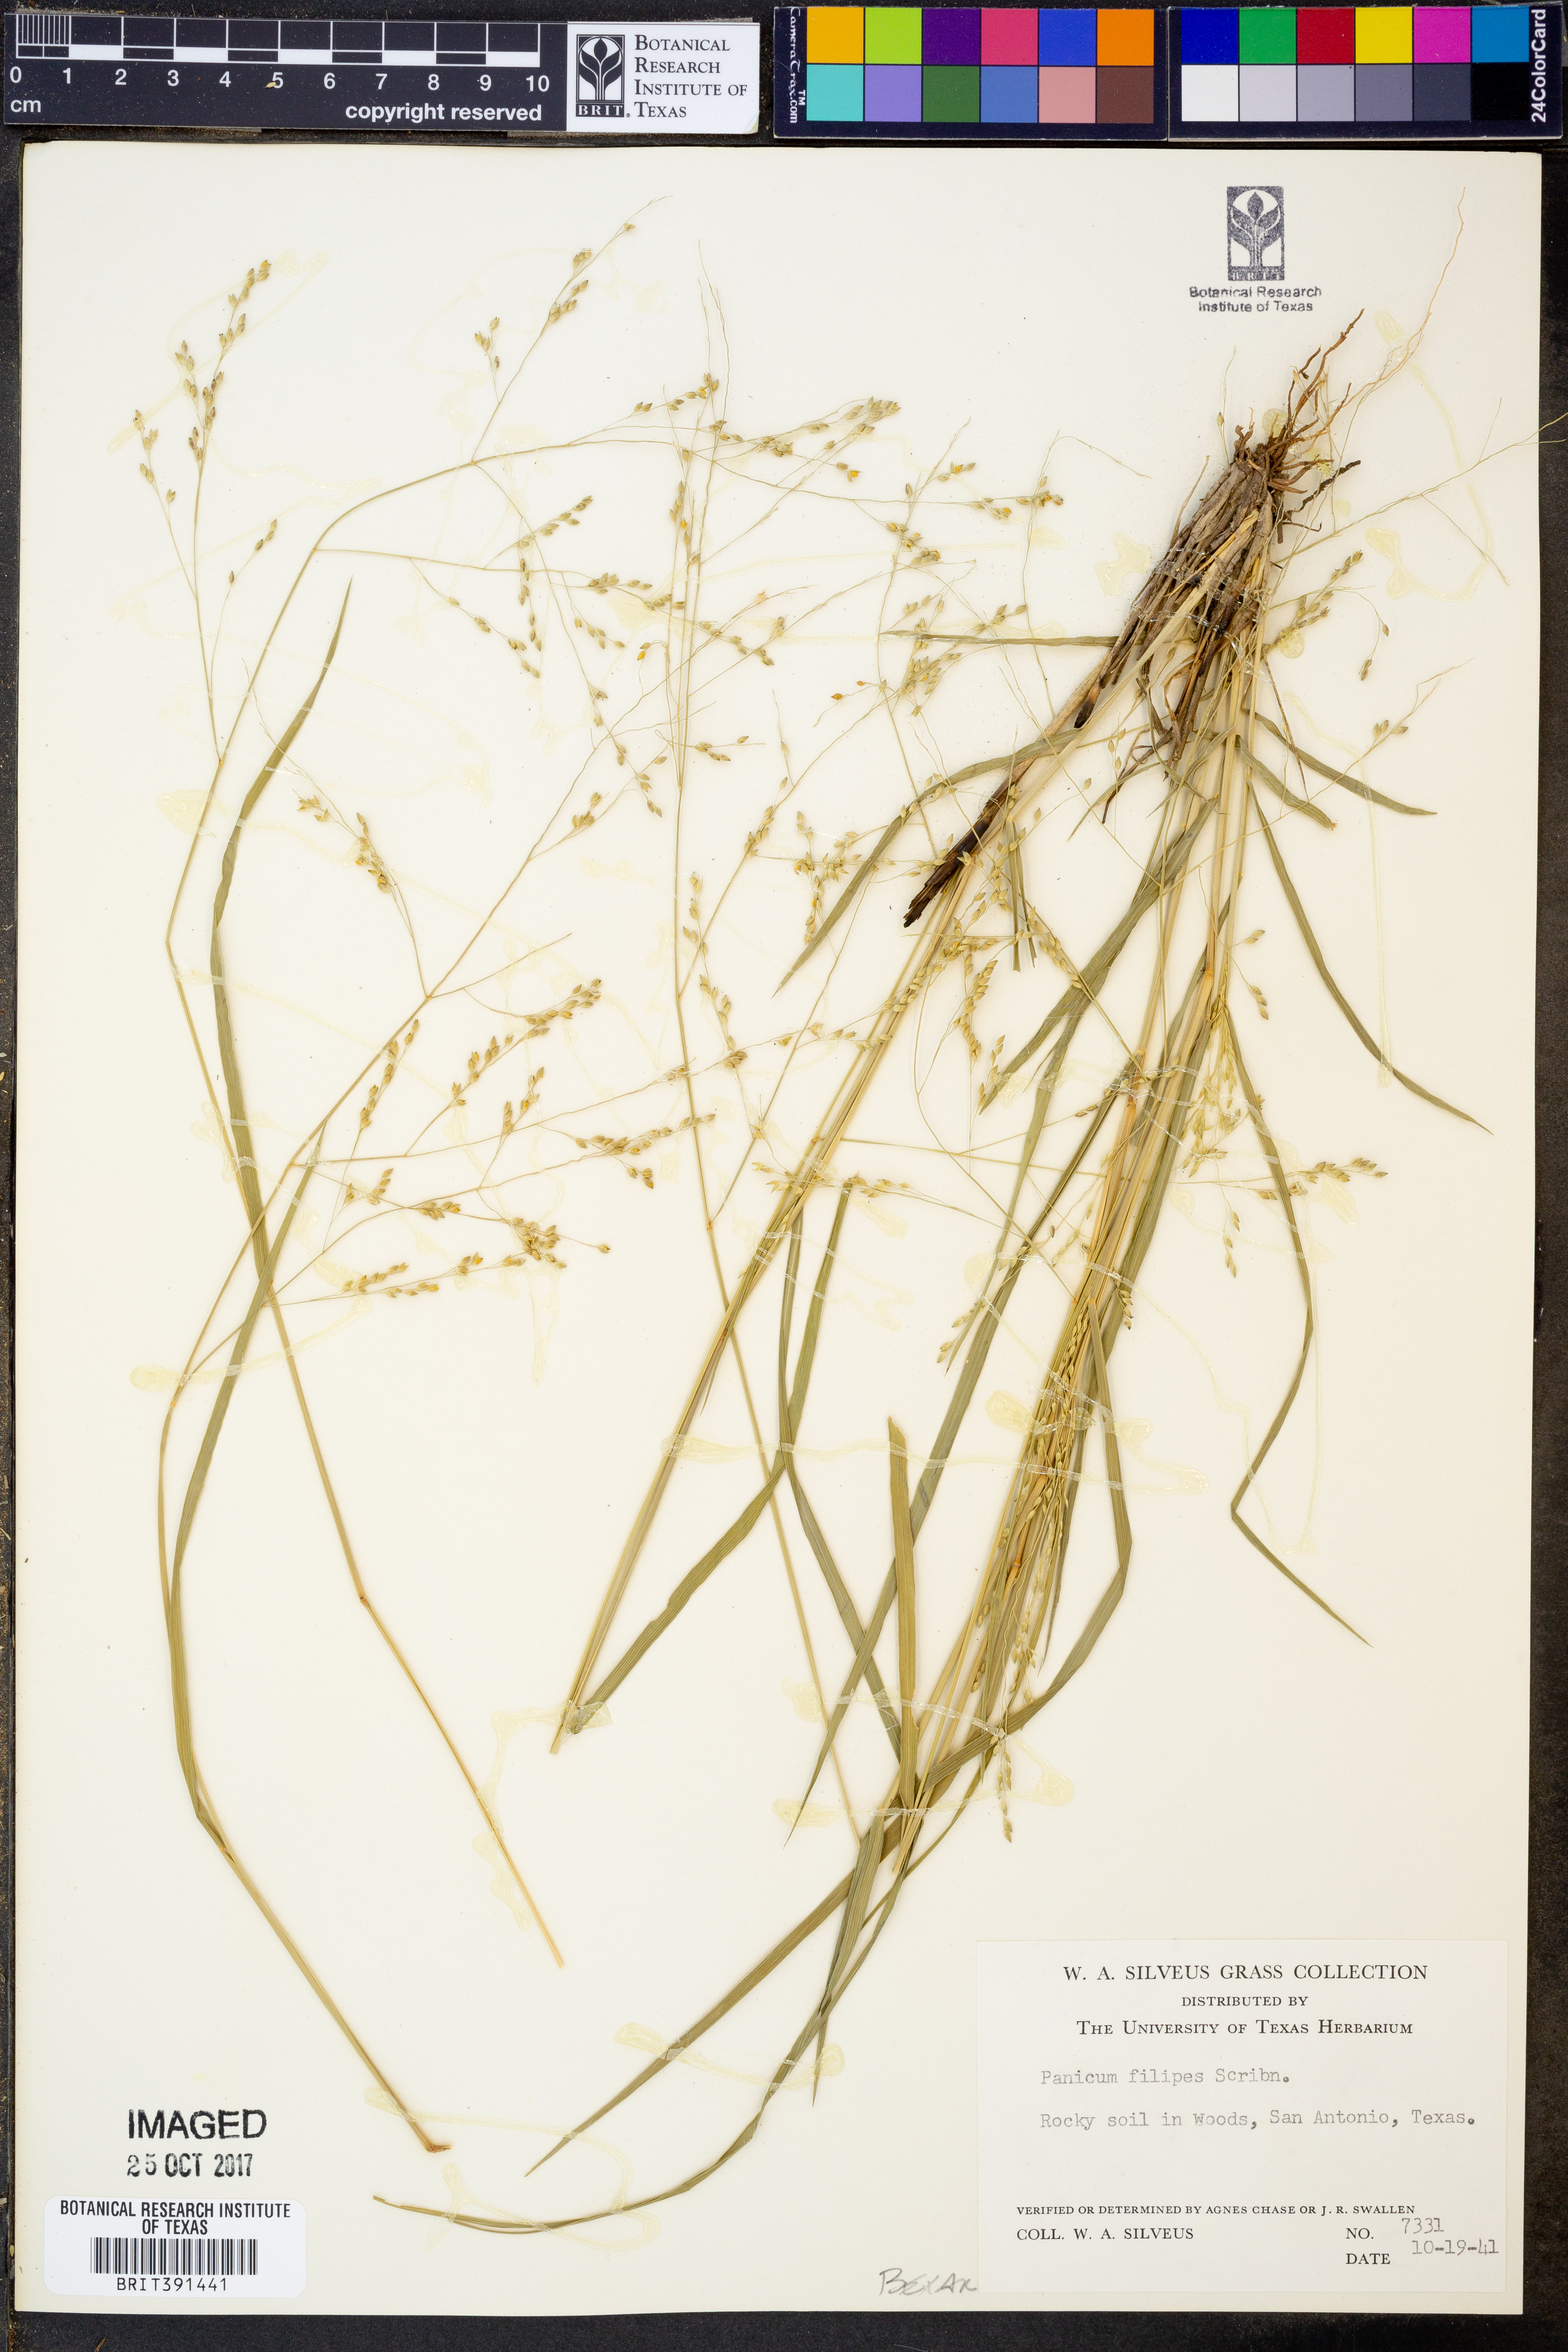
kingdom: Plantae
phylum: Tracheophyta
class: Liliopsida
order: Poales
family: Poaceae
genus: Panicum
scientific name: Panicum hallii
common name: Hall's witchgrass
